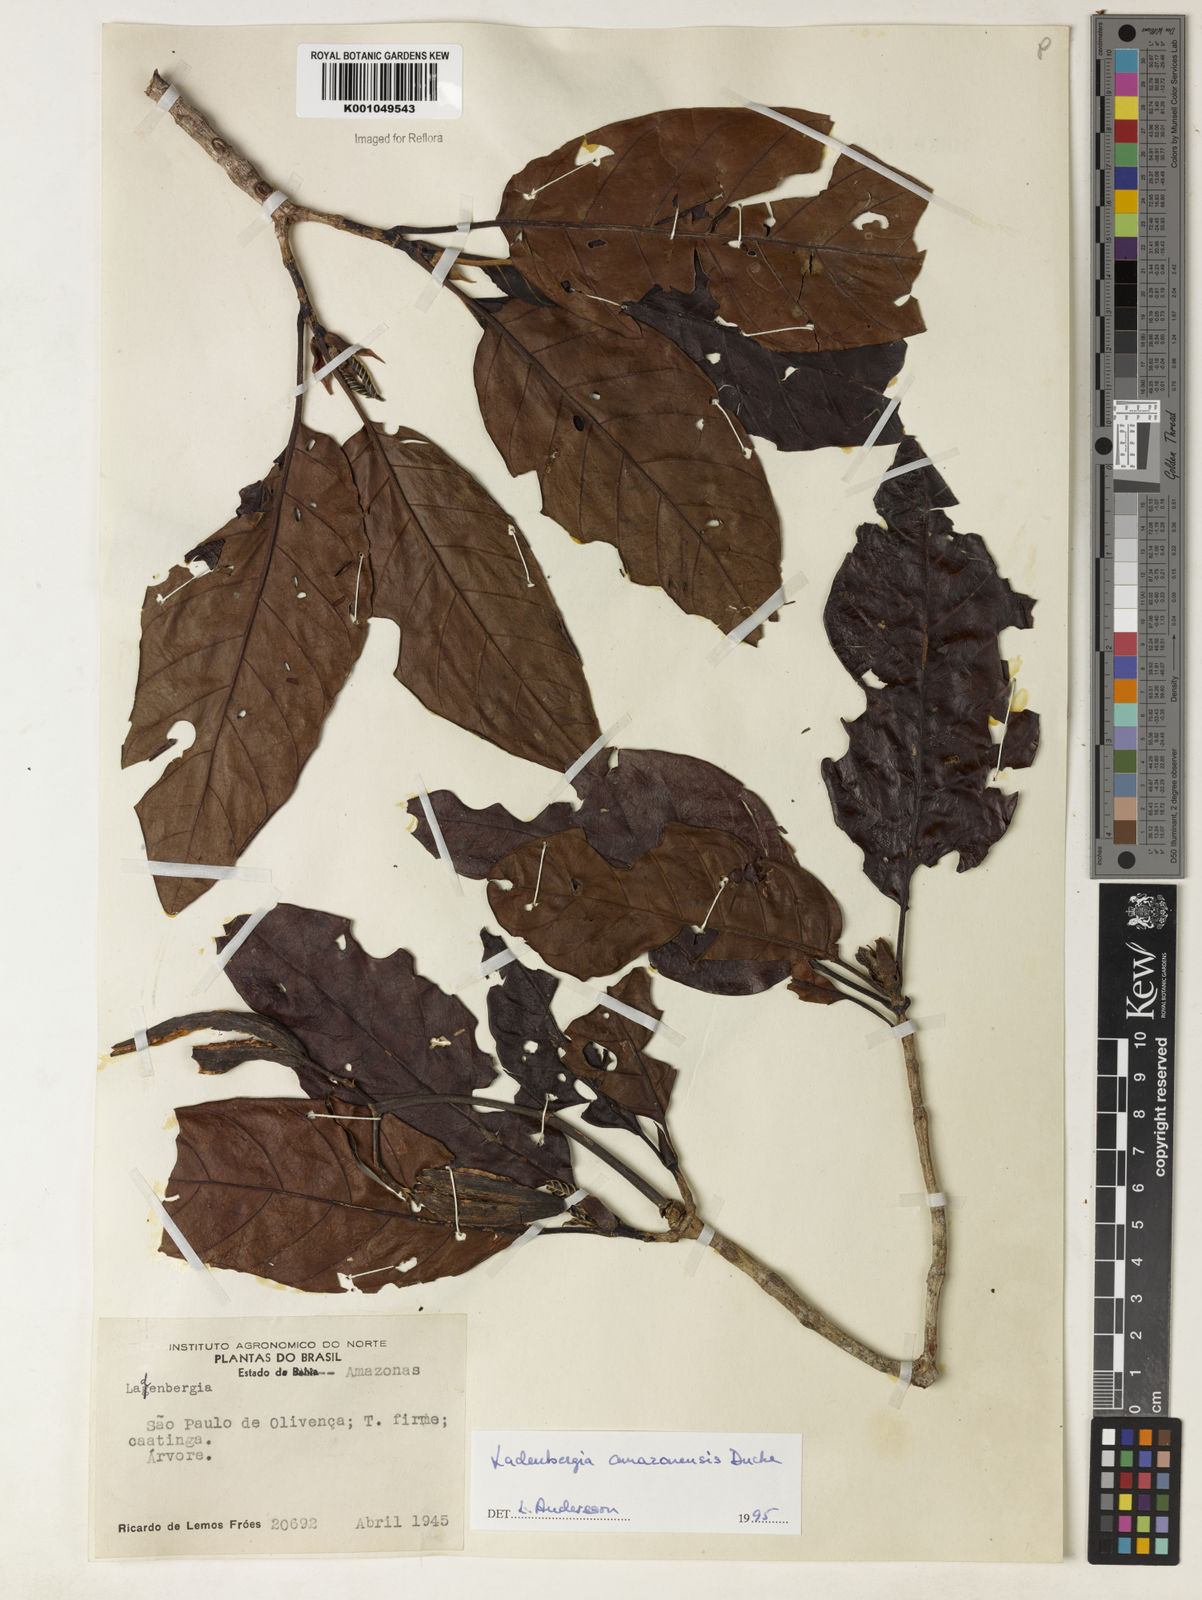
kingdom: Plantae
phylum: Tracheophyta
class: Magnoliopsida
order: Gentianales
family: Rubiaceae
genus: Ladenbergia
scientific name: Ladenbergia amazonensis
